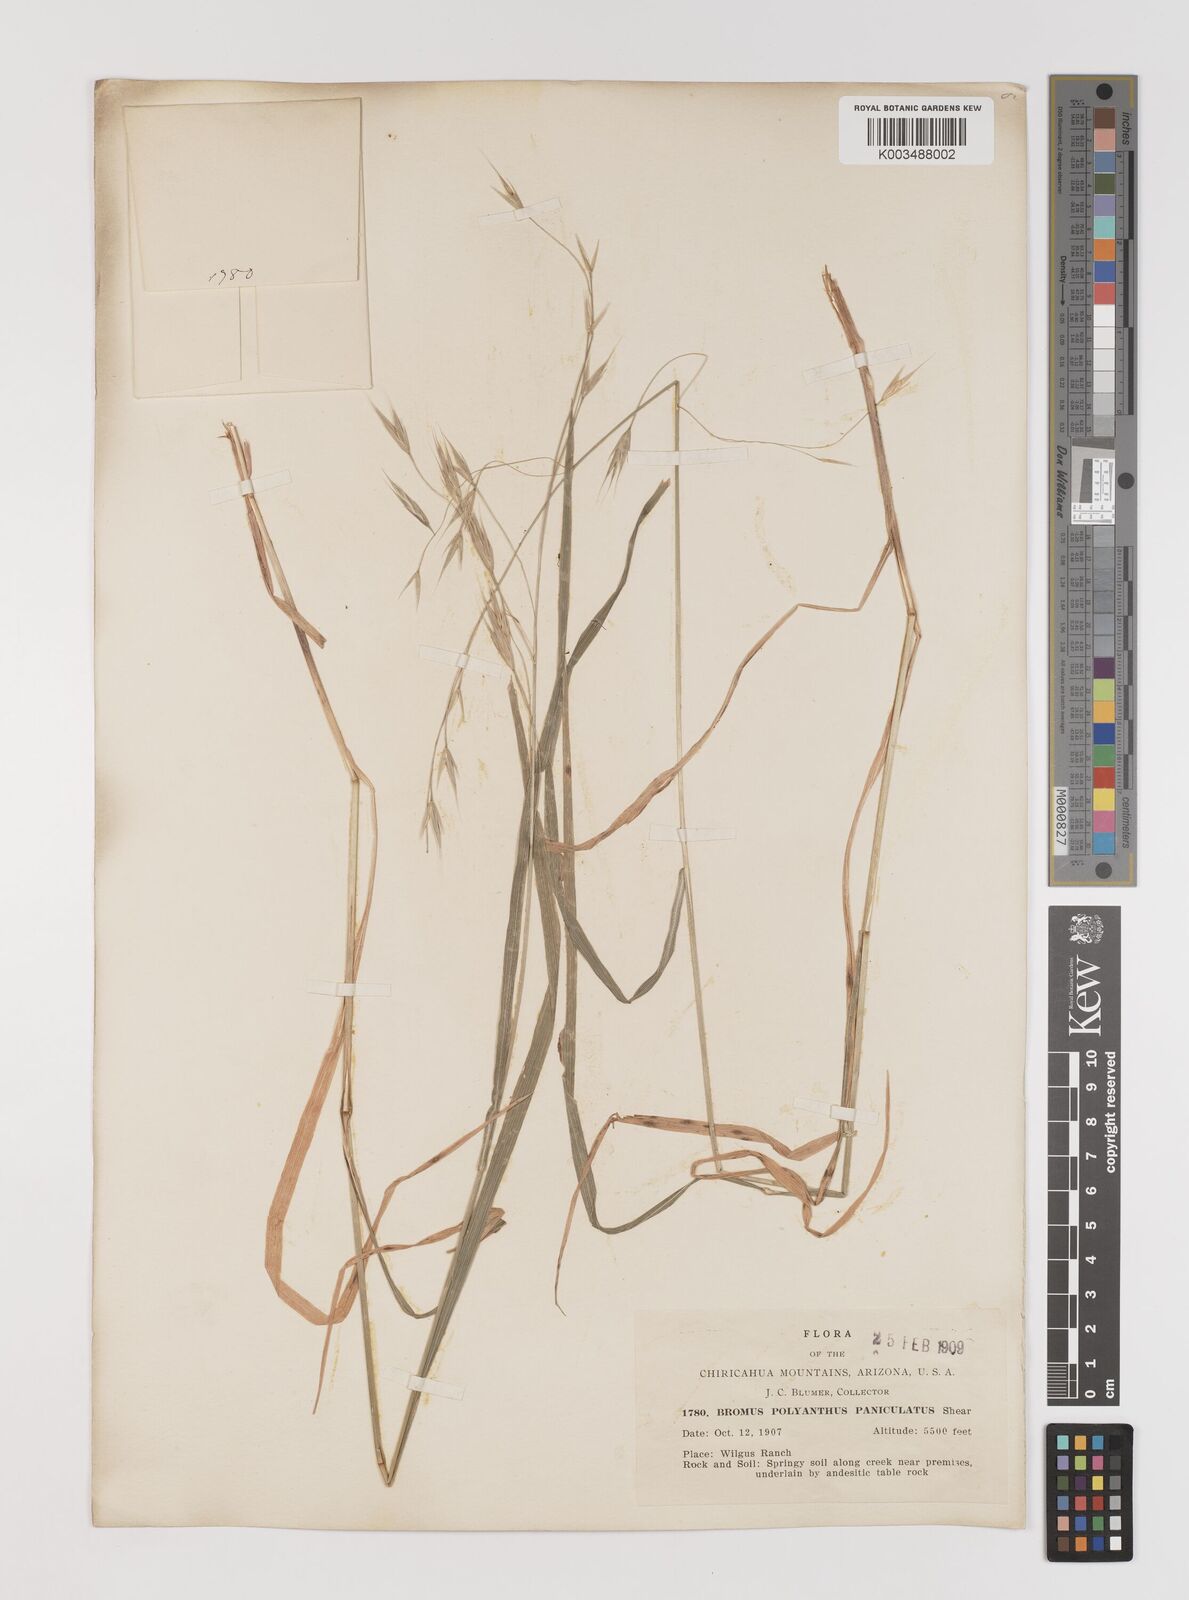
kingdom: Plantae
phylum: Tracheophyta
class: Liliopsida
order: Poales
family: Poaceae
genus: Bromus
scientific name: Bromus polyanthus
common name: Great basin brome
